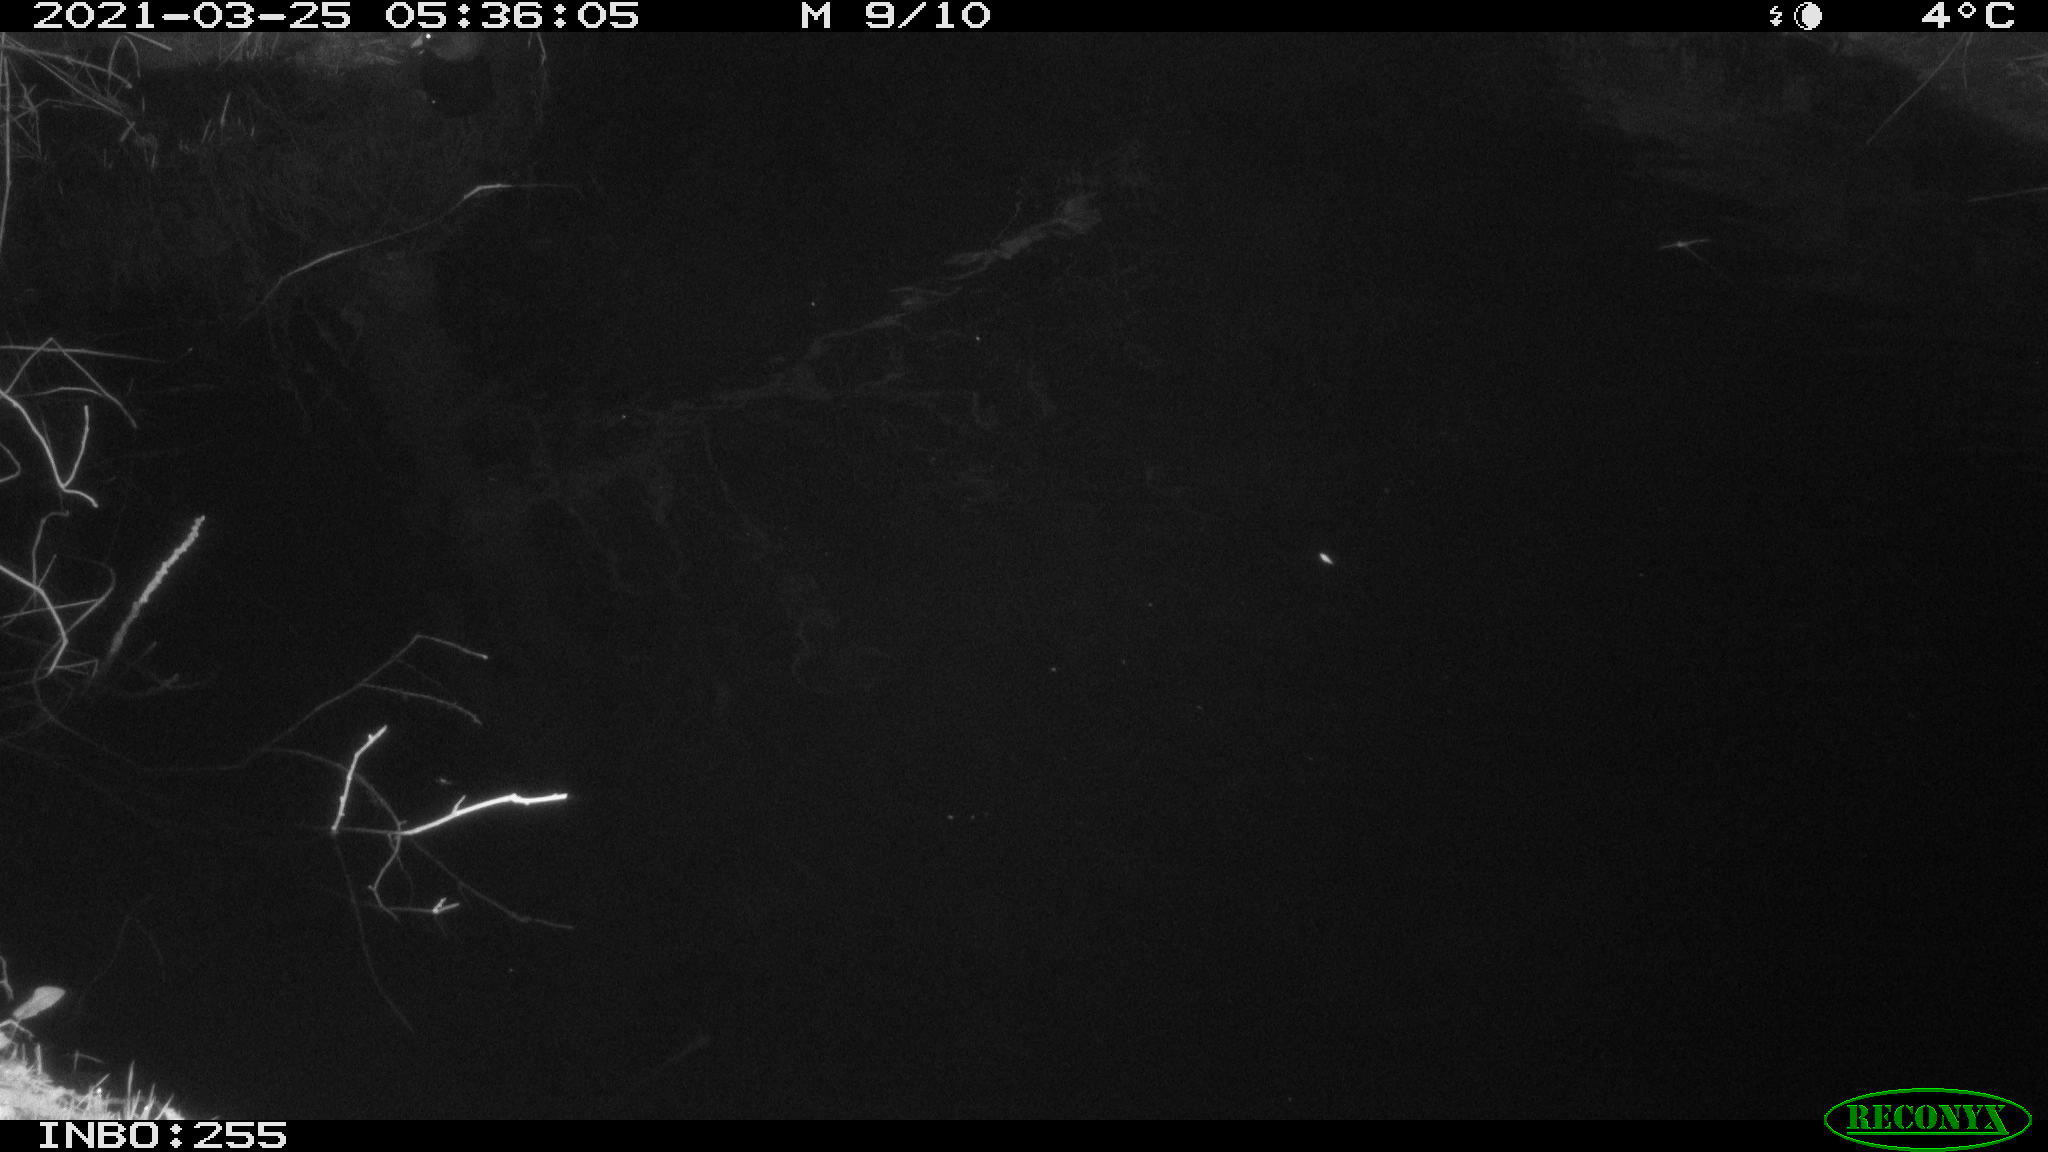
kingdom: Animalia
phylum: Chordata
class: Aves
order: Gruiformes
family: Rallidae
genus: Gallinula
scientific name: Gallinula chloropus
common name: Common moorhen
